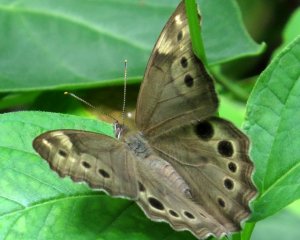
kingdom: Animalia
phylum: Arthropoda
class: Insecta
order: Lepidoptera
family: Nymphalidae
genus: Lethe
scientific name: Lethe anthedon
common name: Northern Pearly-Eye
